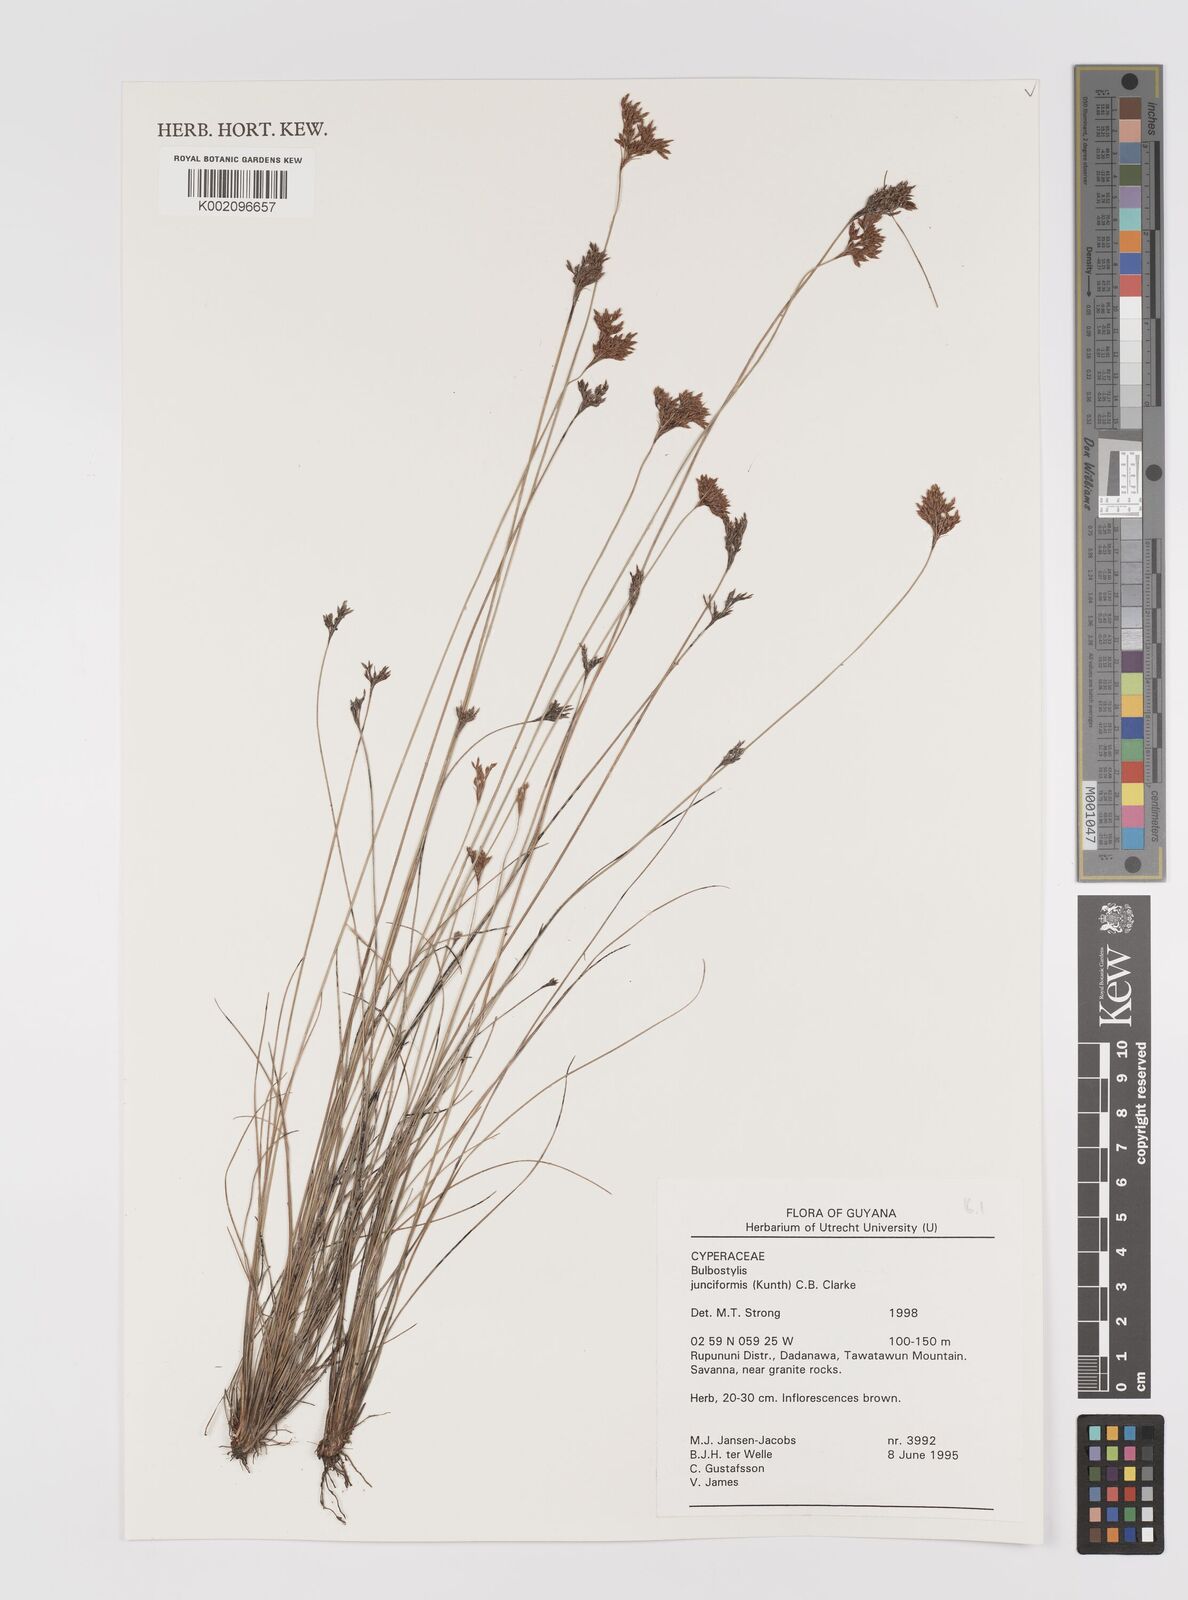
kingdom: Plantae
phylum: Tracheophyta
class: Liliopsida
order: Poales
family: Cyperaceae
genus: Bulbostylis
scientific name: Bulbostylis junciformis
